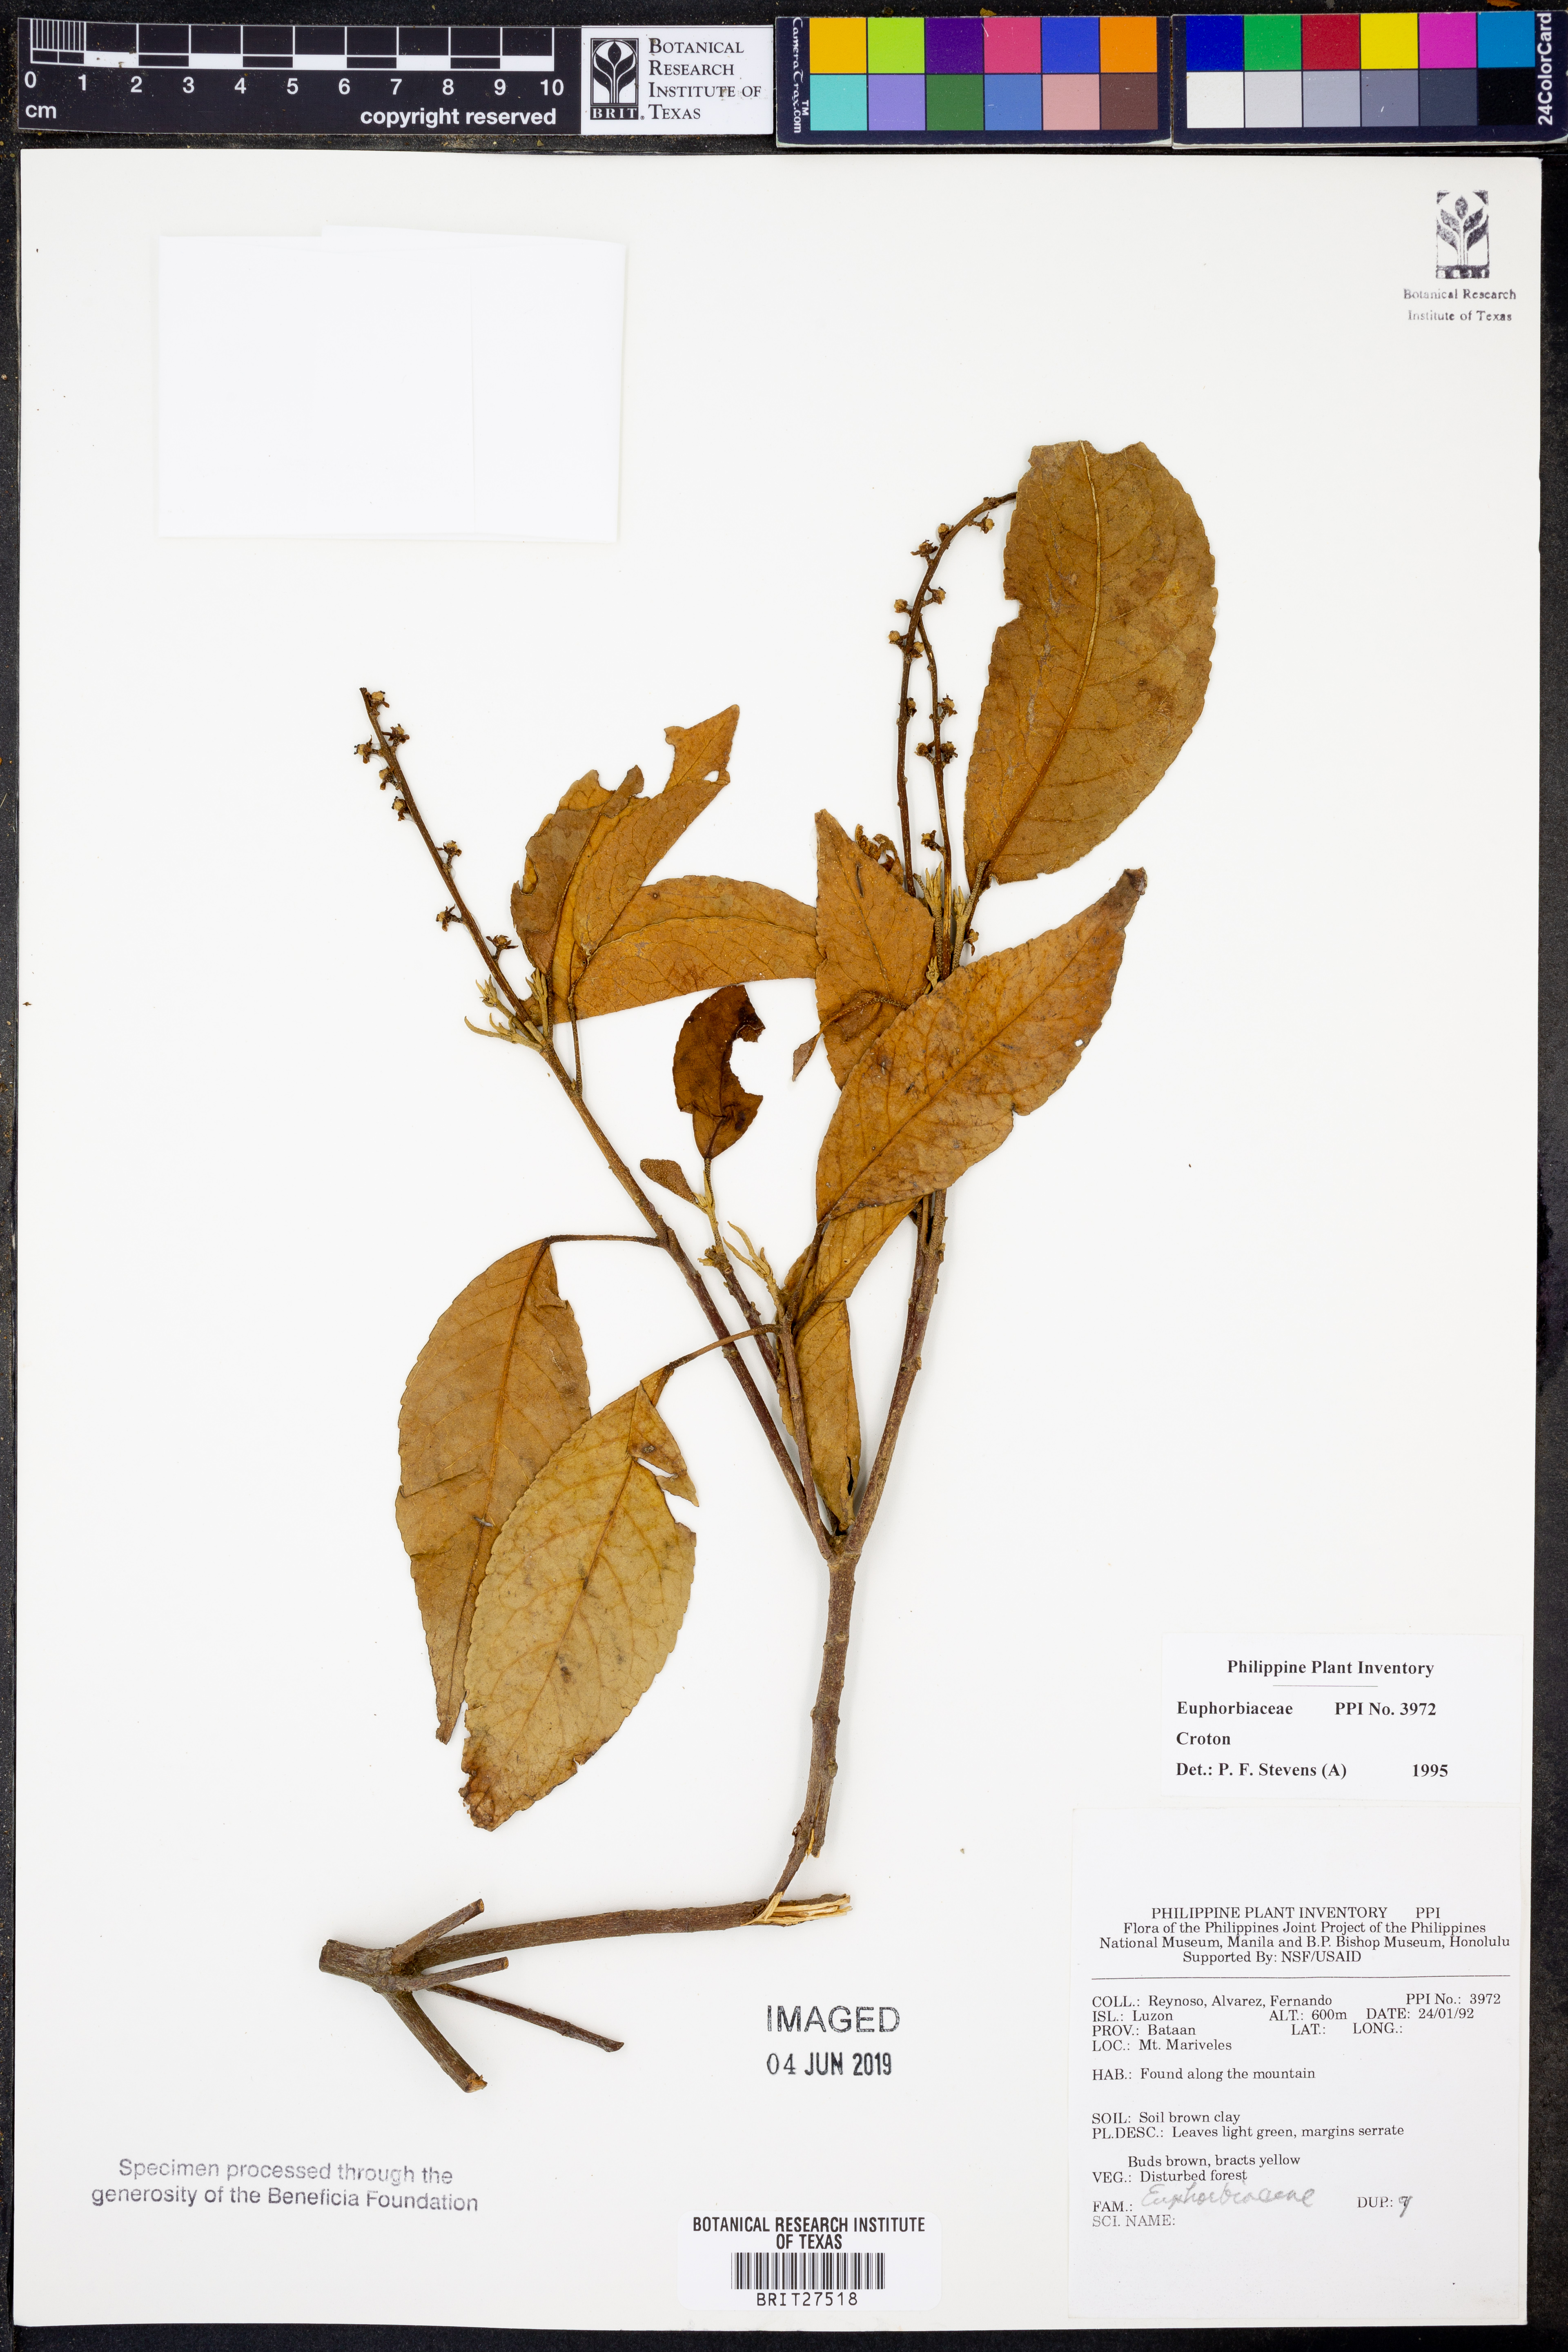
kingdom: Plantae
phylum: Tracheophyta
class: Magnoliopsida
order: Malpighiales
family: Euphorbiaceae
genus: Croton
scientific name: Croton
